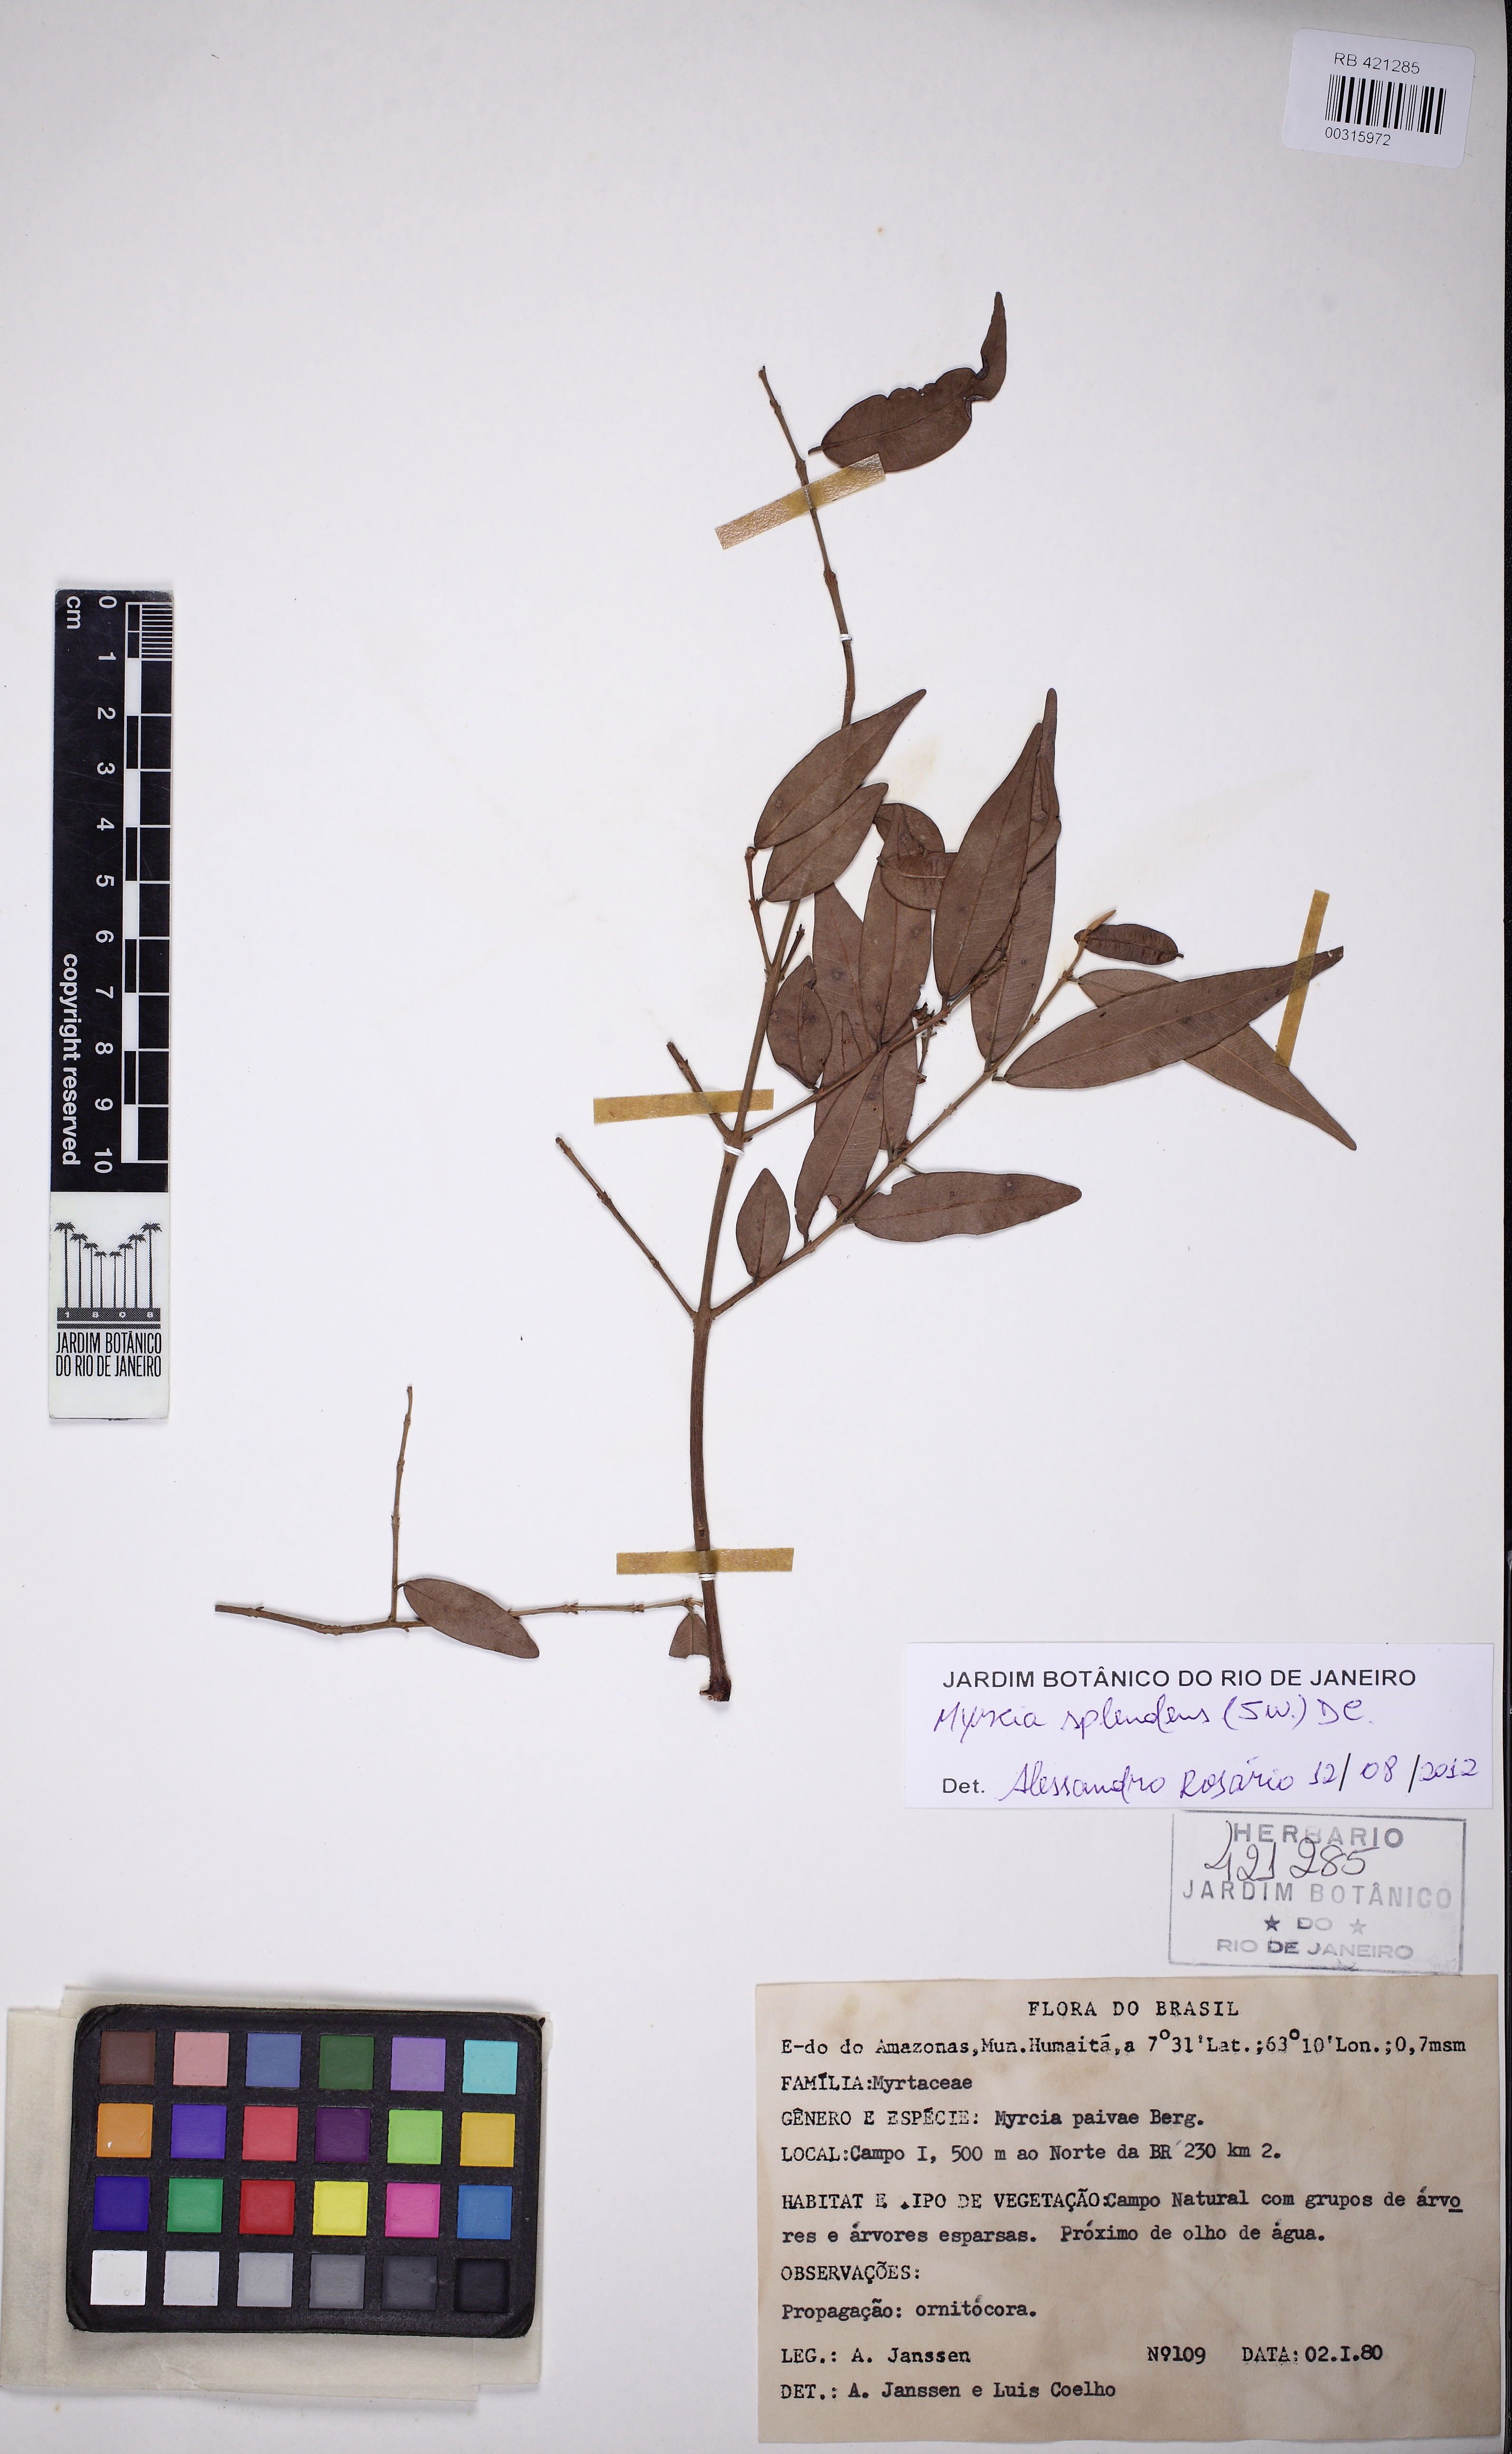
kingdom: Plantae
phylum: Tracheophyta
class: Magnoliopsida
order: Myrtales
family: Myrtaceae
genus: Myrcia
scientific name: Myrcia splendens
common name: Surinam cherry
